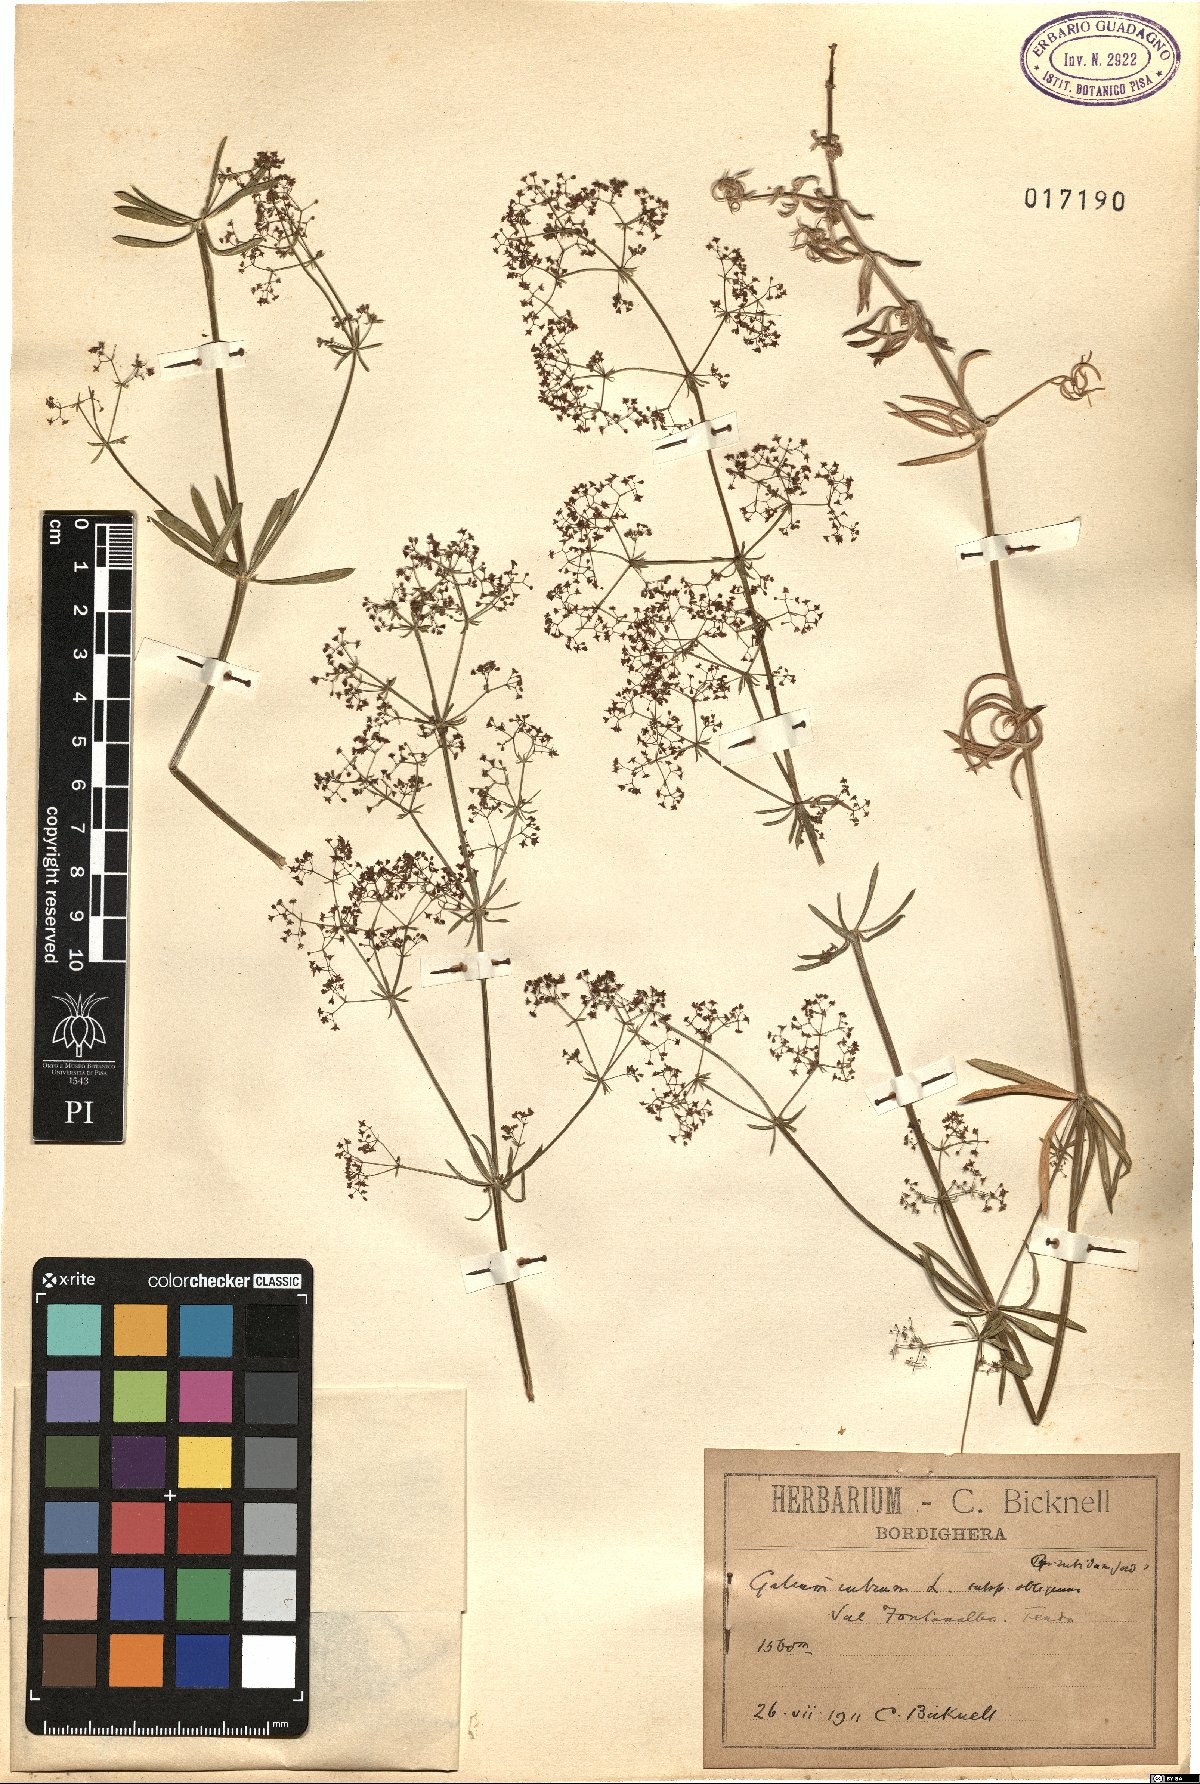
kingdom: Plantae
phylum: Tracheophyta
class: Magnoliopsida
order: Gentianales
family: Rubiaceae
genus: Galium
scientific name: Galium obliquum
